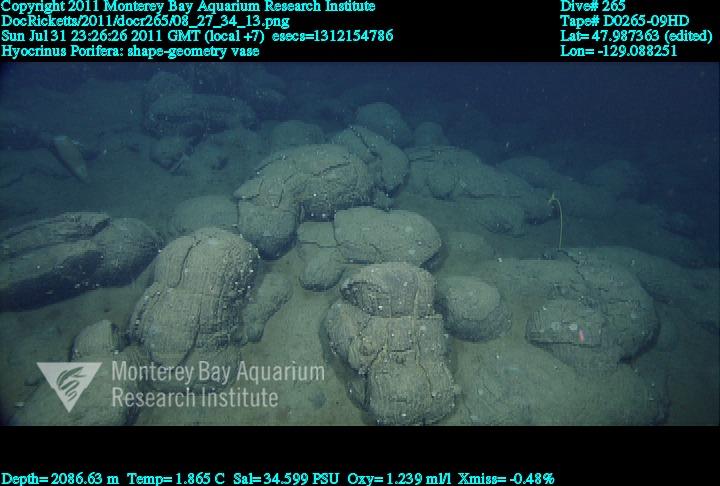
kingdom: Animalia
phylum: Porifera
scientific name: Porifera
